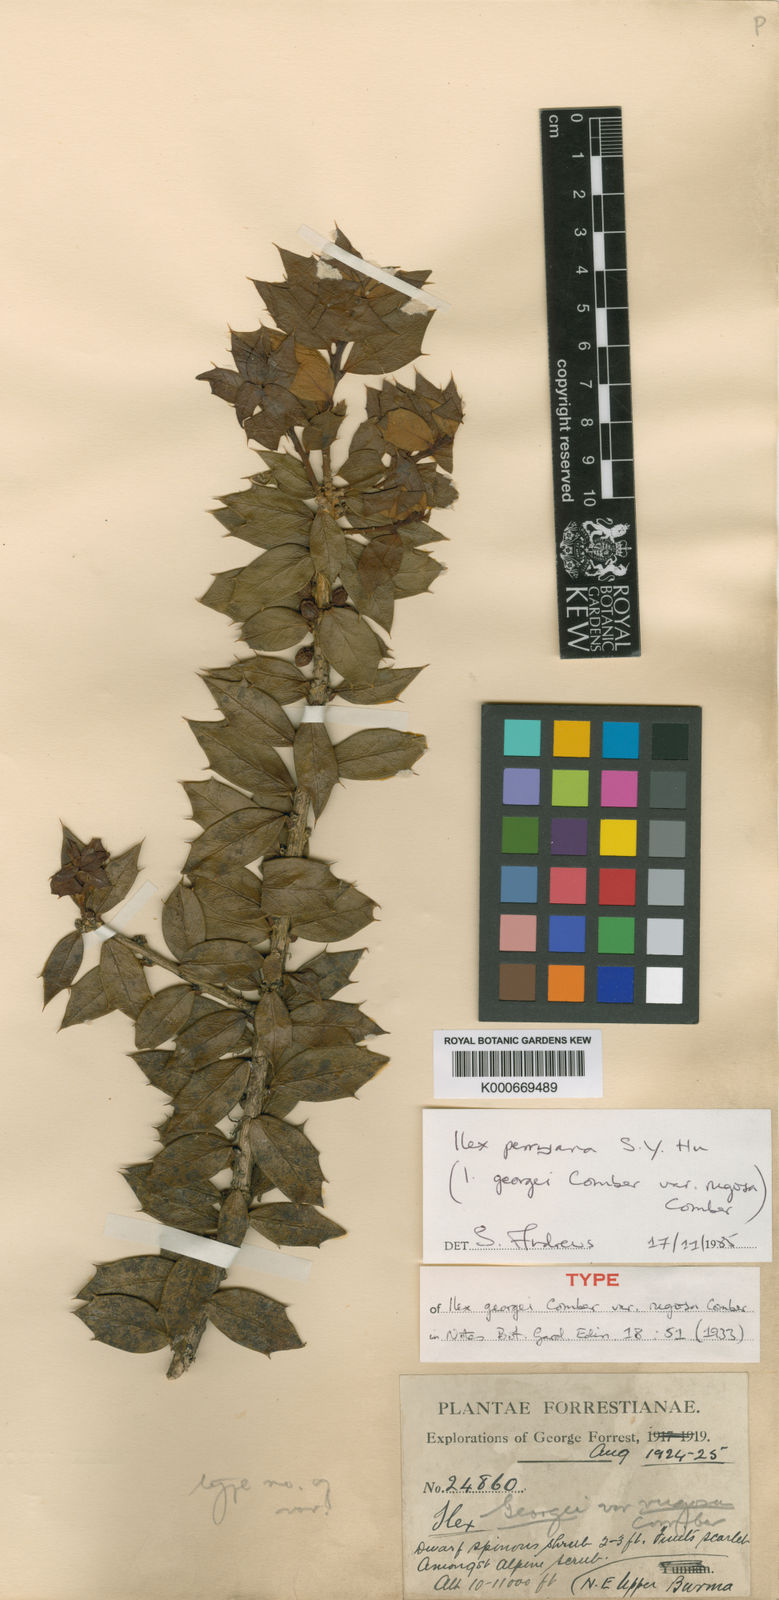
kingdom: Plantae
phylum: Tracheophyta
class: Magnoliopsida
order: Aquifoliales
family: Aquifoliaceae
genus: Ilex
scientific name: Ilex perryana
